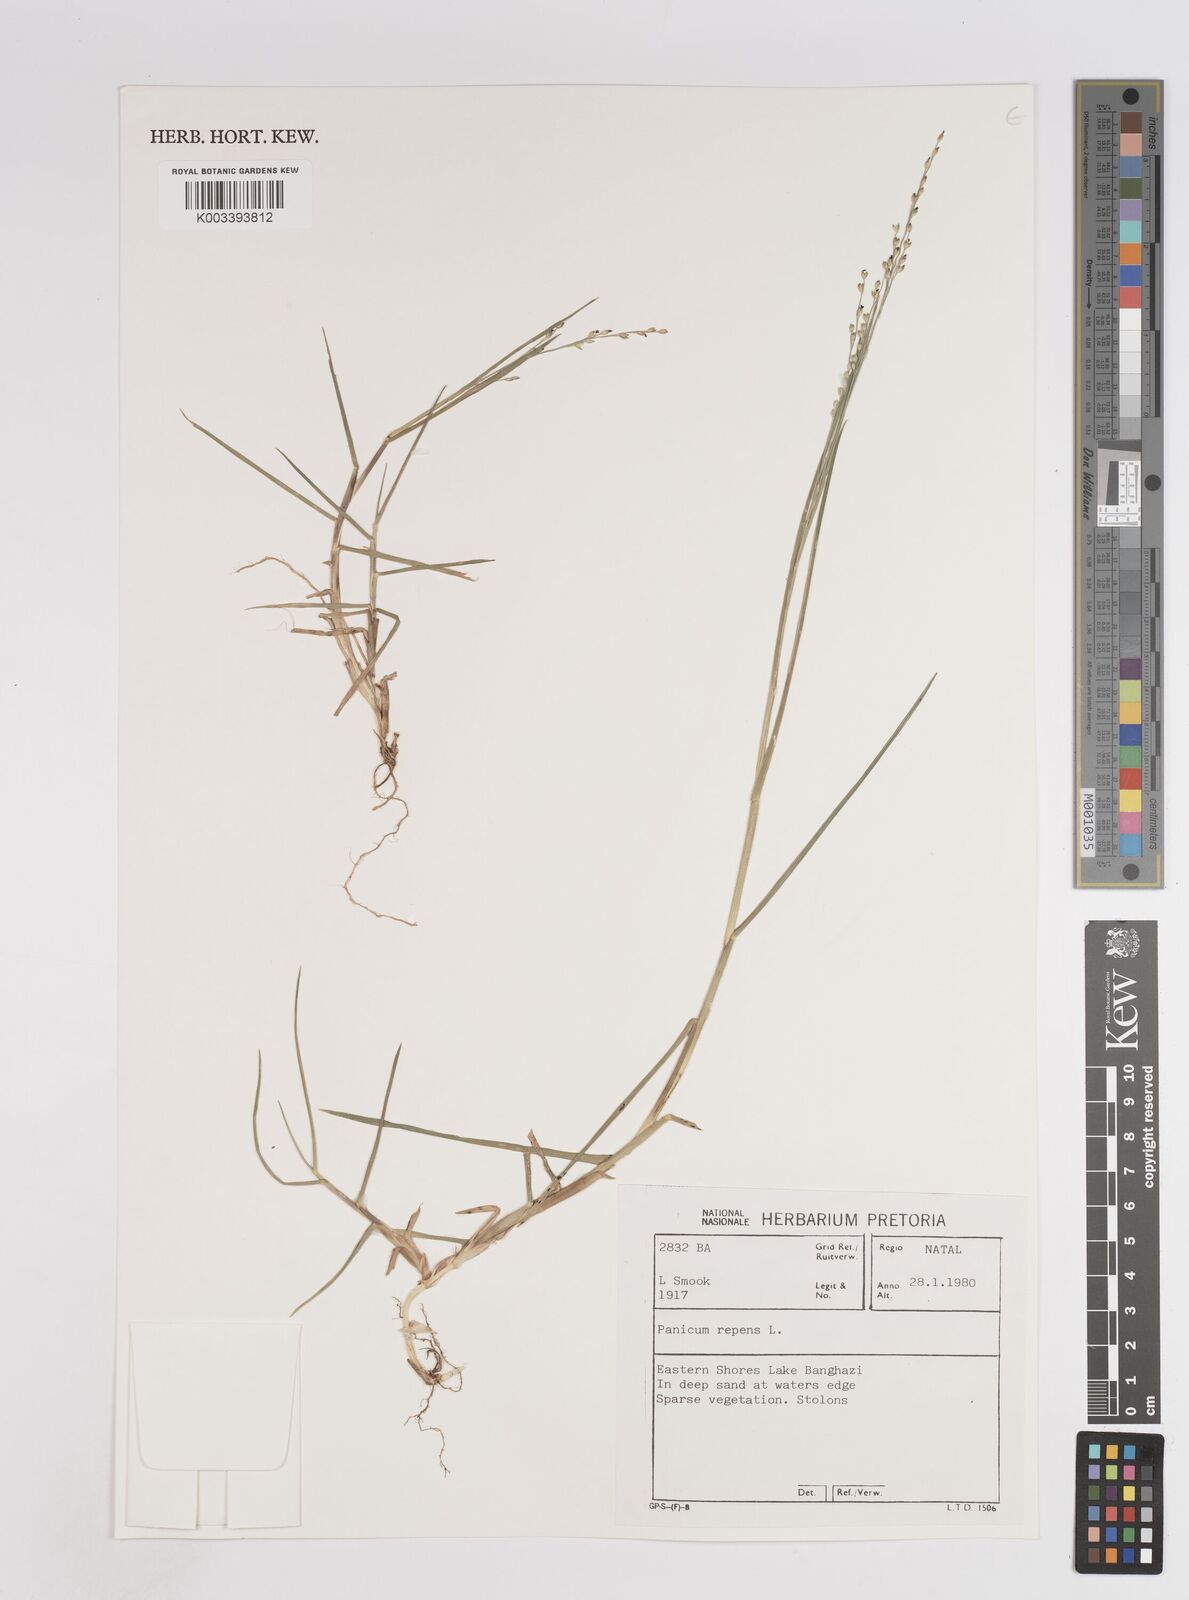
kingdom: Plantae
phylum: Tracheophyta
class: Liliopsida
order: Poales
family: Poaceae
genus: Panicum
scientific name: Panicum repens
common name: Torpedo grass
